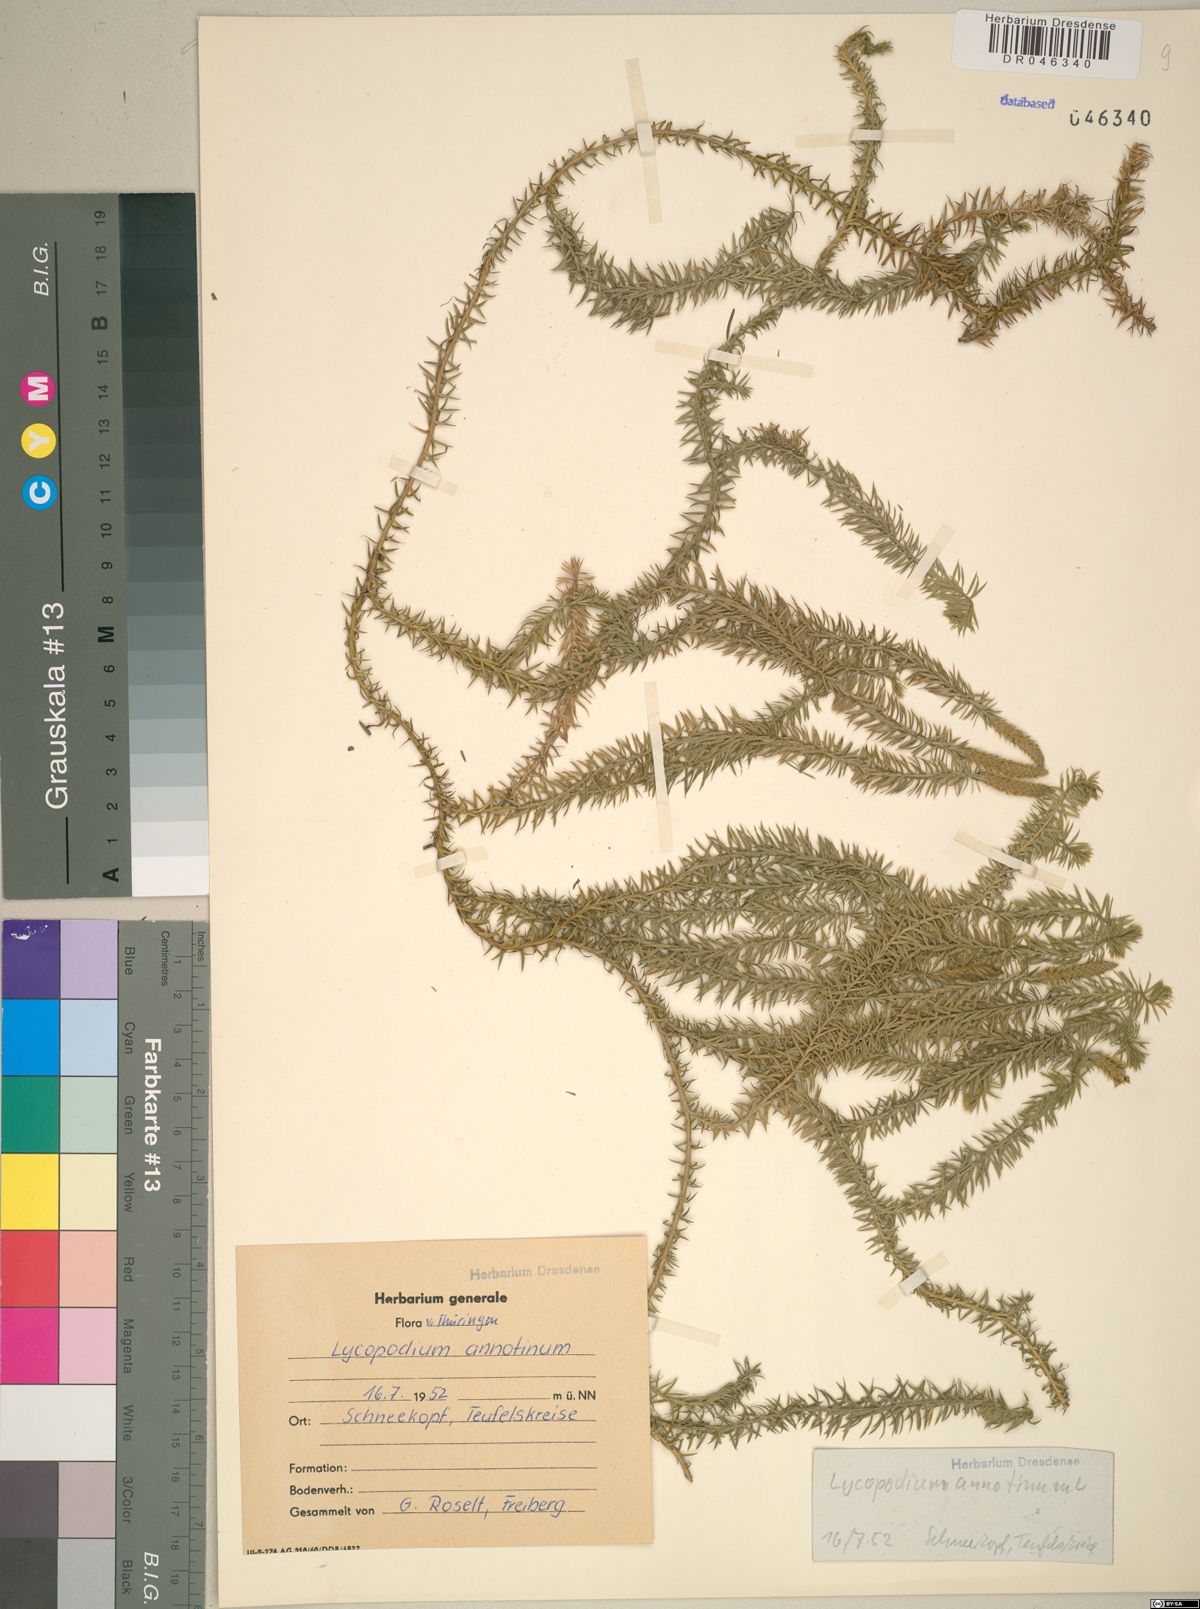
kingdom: Plantae
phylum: Tracheophyta
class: Lycopodiopsida
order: Lycopodiales
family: Lycopodiaceae
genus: Spinulum
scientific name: Spinulum annotinum
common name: Interrupted club-moss
